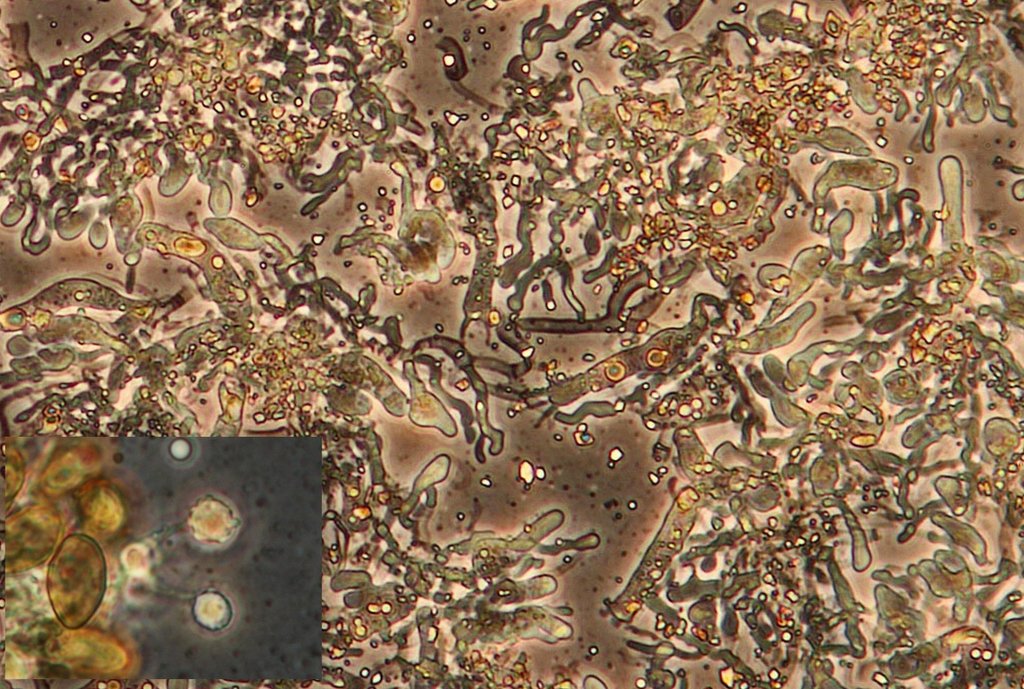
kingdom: Fungi
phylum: Basidiomycota
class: Agaricomycetes
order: Boletales
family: Coniophoraceae
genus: Coniophora
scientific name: Coniophora puteana
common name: gul tømmersvamp
